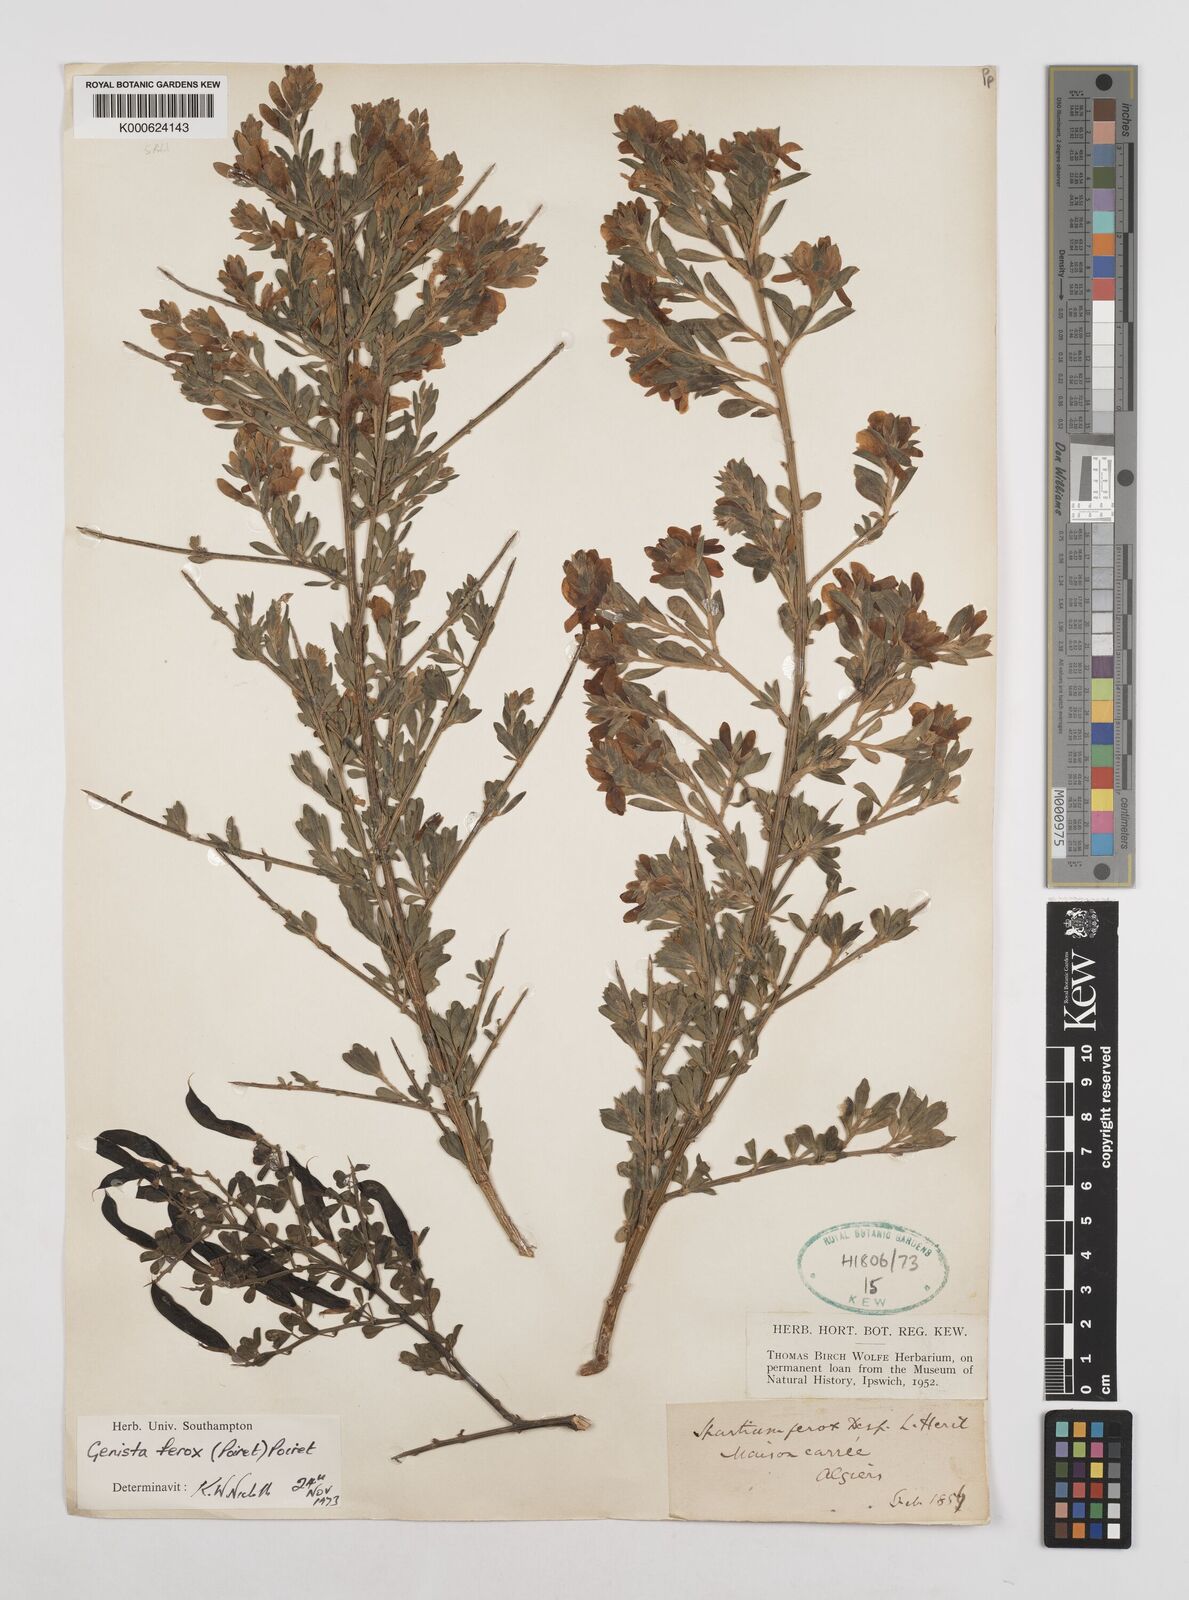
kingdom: Plantae
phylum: Tracheophyta
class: Magnoliopsida
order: Fabales
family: Fabaceae
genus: Genista
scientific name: Genista ferox
